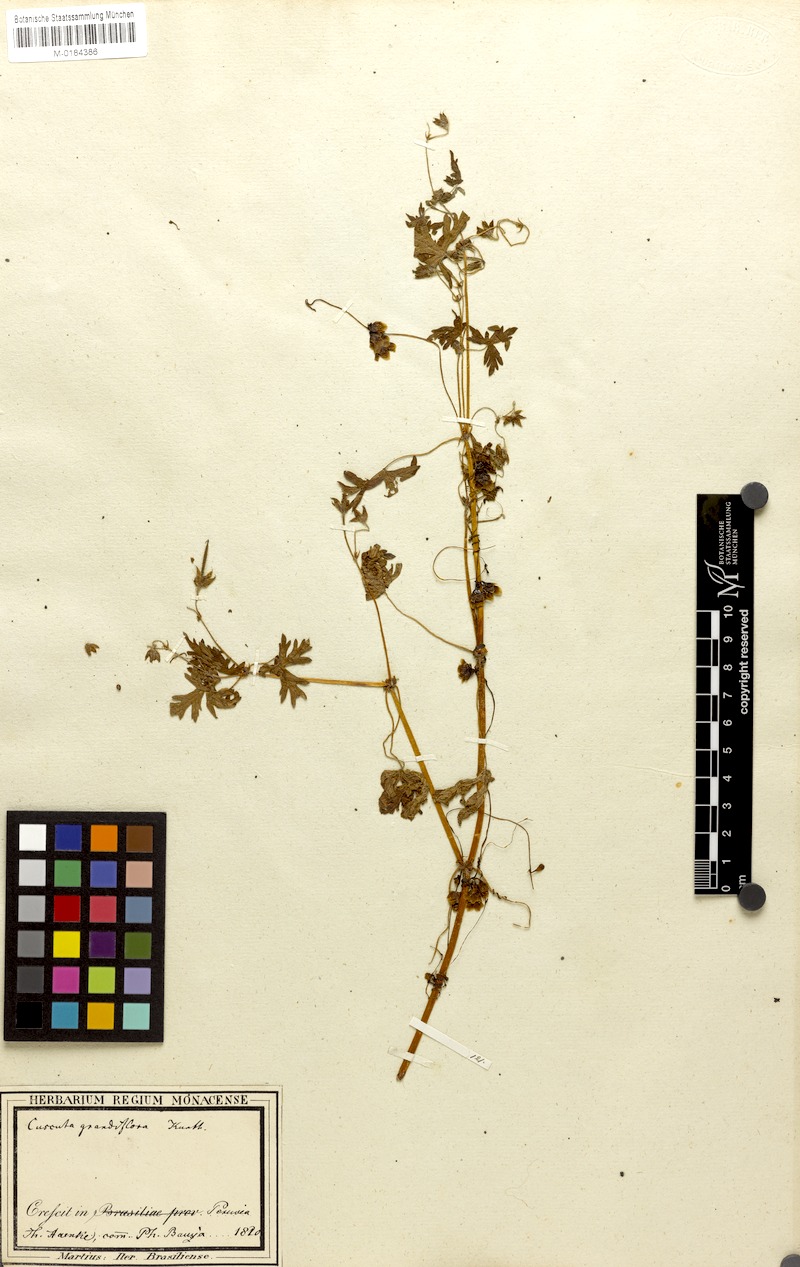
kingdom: Plantae
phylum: Tracheophyta
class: Magnoliopsida
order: Solanales
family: Convolvulaceae
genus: Cuscuta
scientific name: Cuscuta grandiflora
